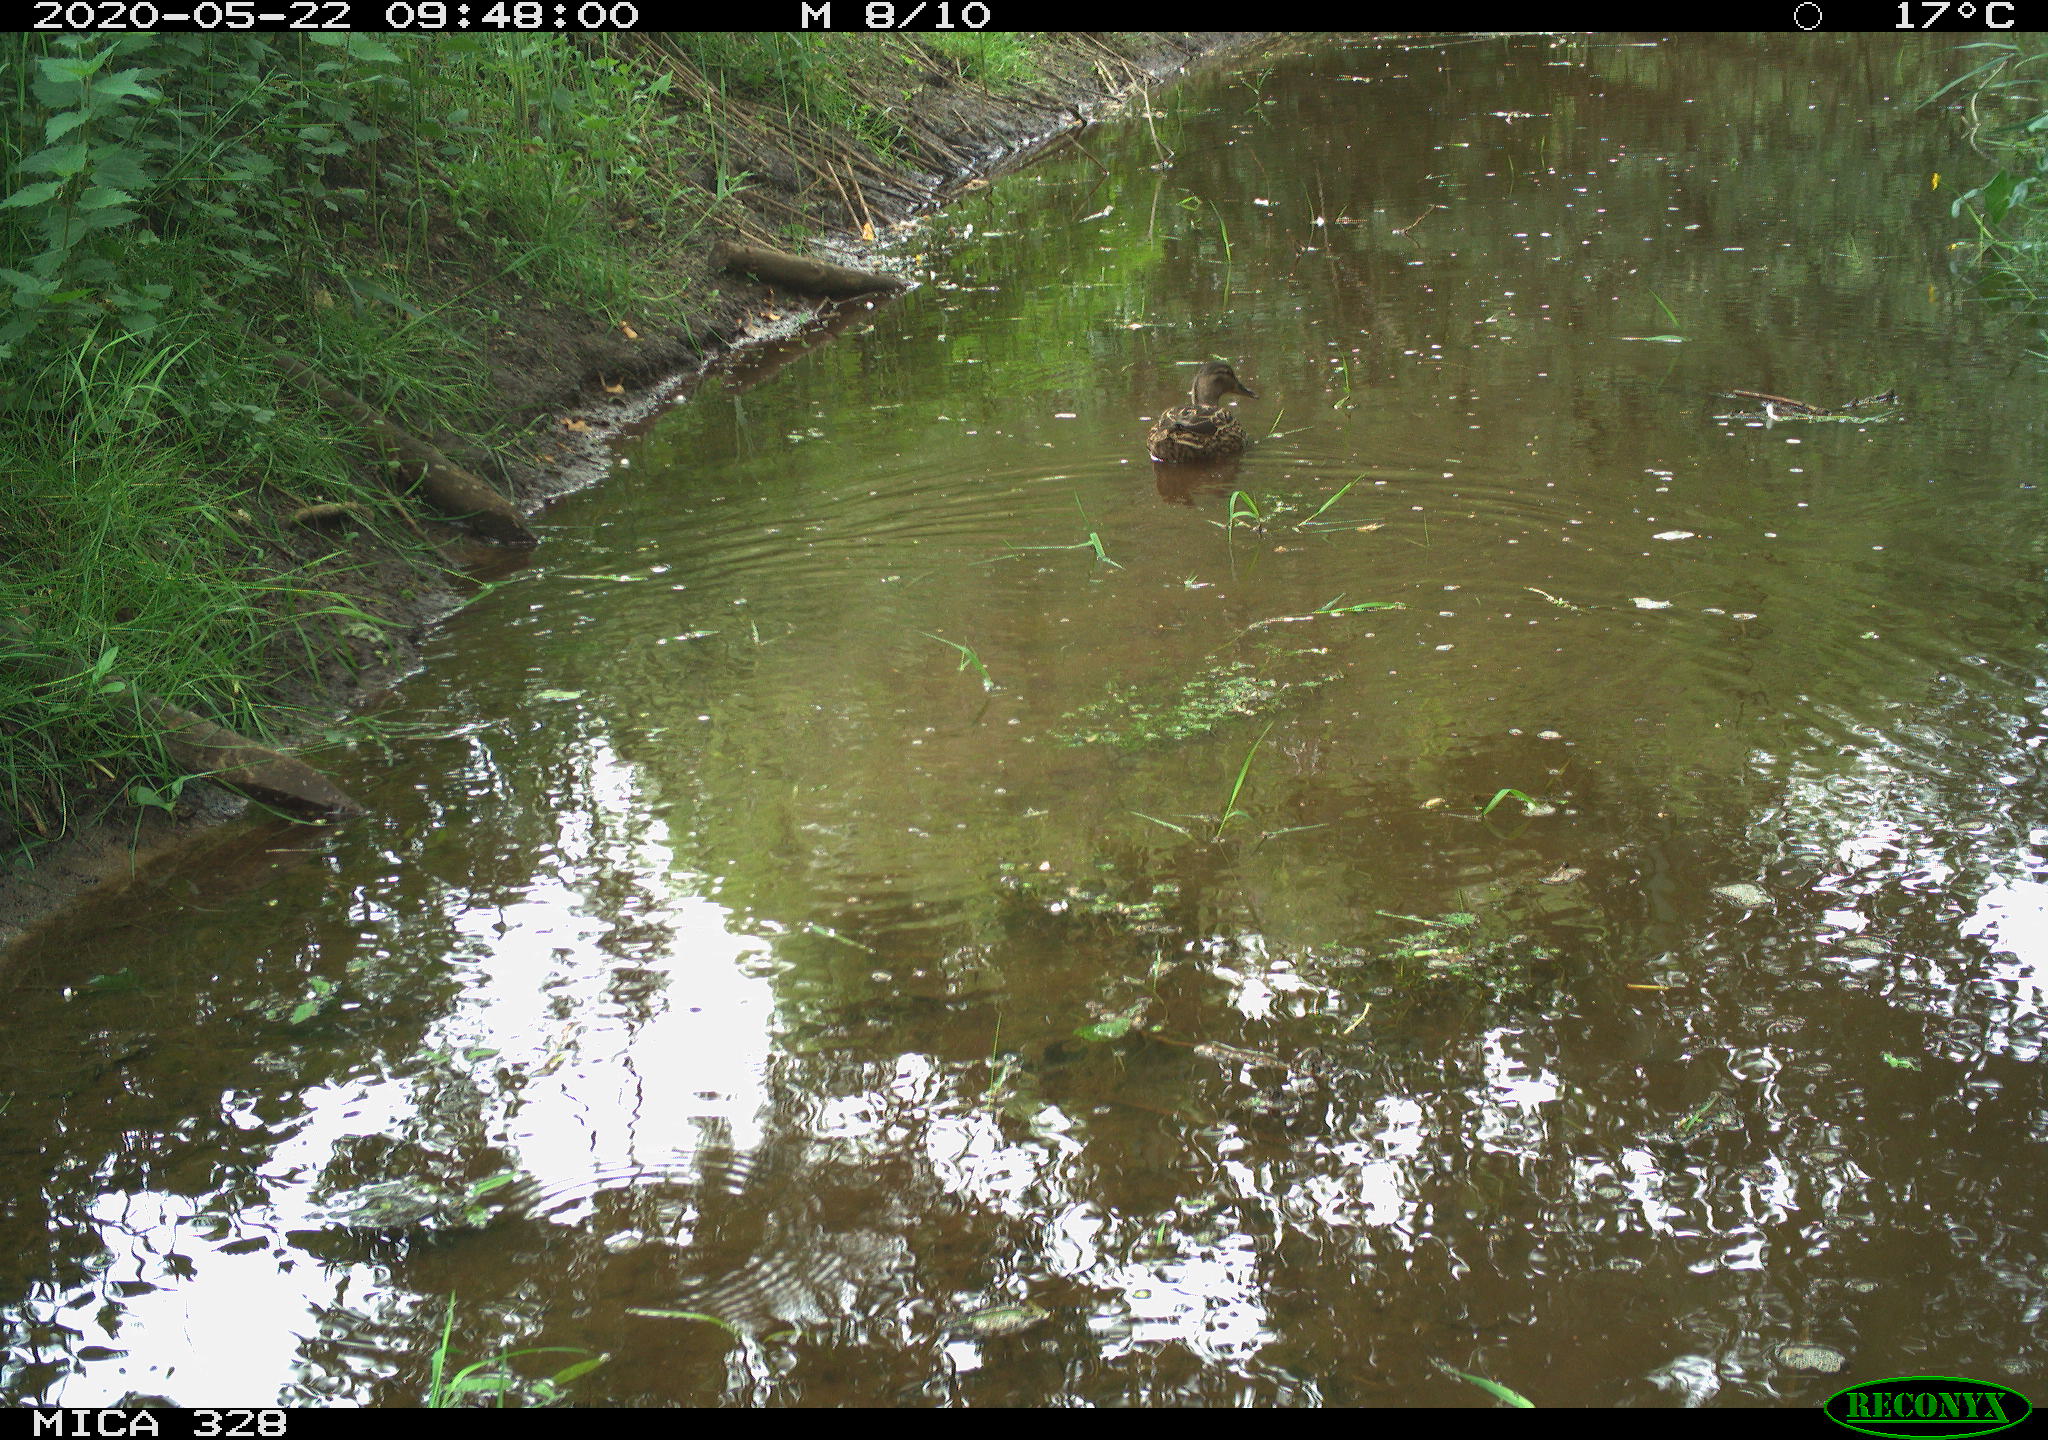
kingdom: Animalia
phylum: Chordata
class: Aves
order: Anseriformes
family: Anatidae
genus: Anas
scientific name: Anas platyrhynchos
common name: Mallard
